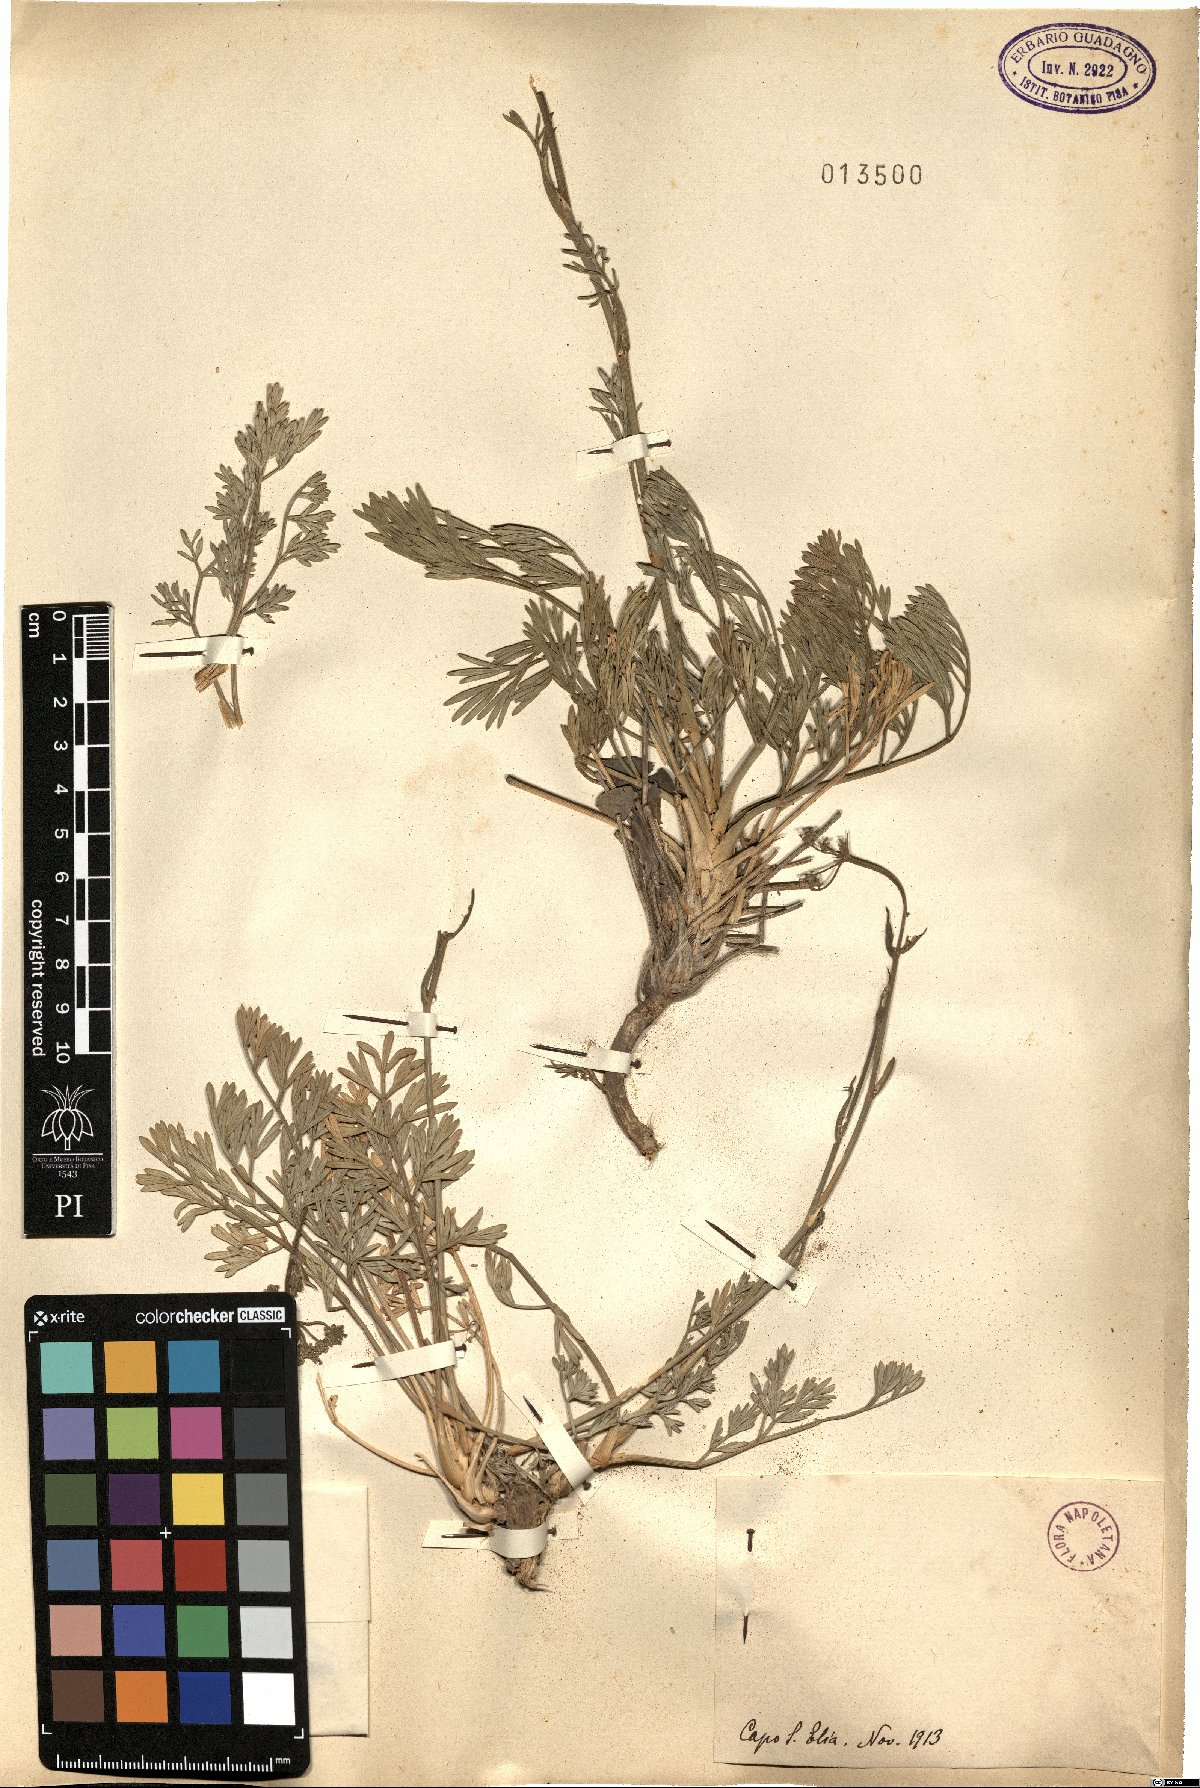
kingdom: Plantae
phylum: Tracheophyta
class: Magnoliopsida
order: Apiales
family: Apiaceae
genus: Seseli
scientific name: Seseli
